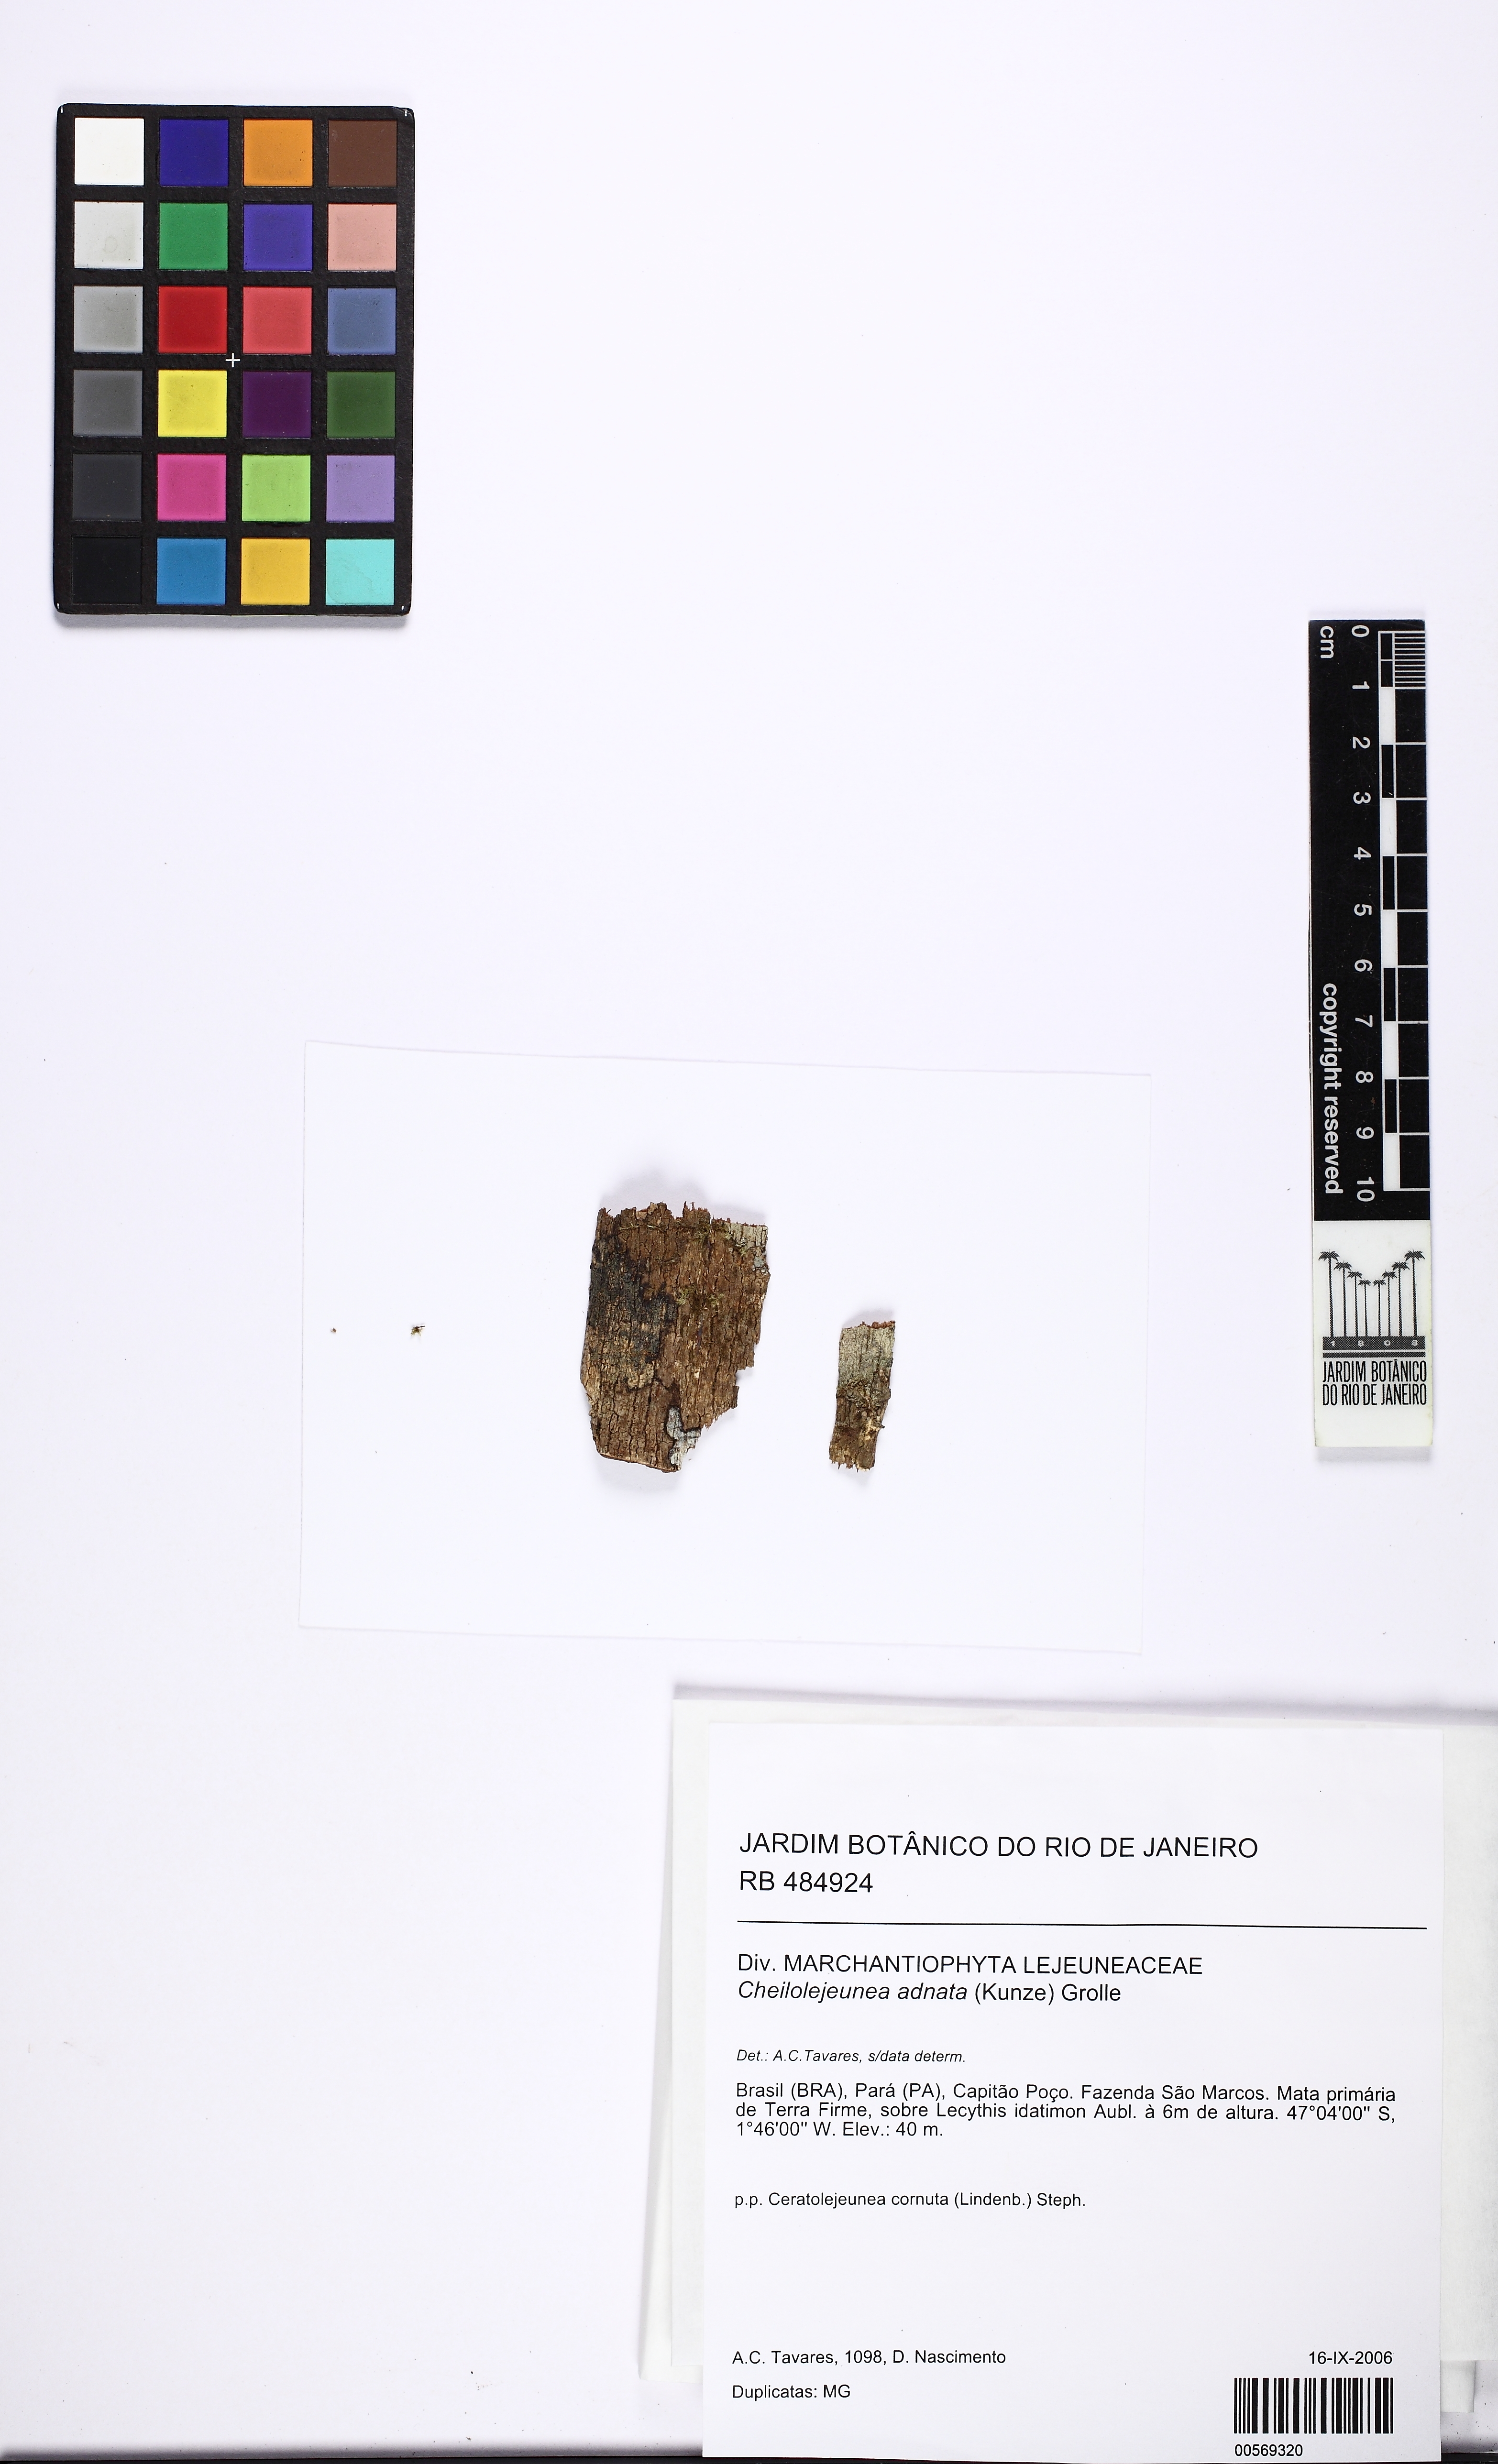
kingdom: Plantae
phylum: Marchantiophyta
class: Jungermanniopsida
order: Porellales
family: Lejeuneaceae
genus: Cheilolejeunea
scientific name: Cheilolejeunea adnata
